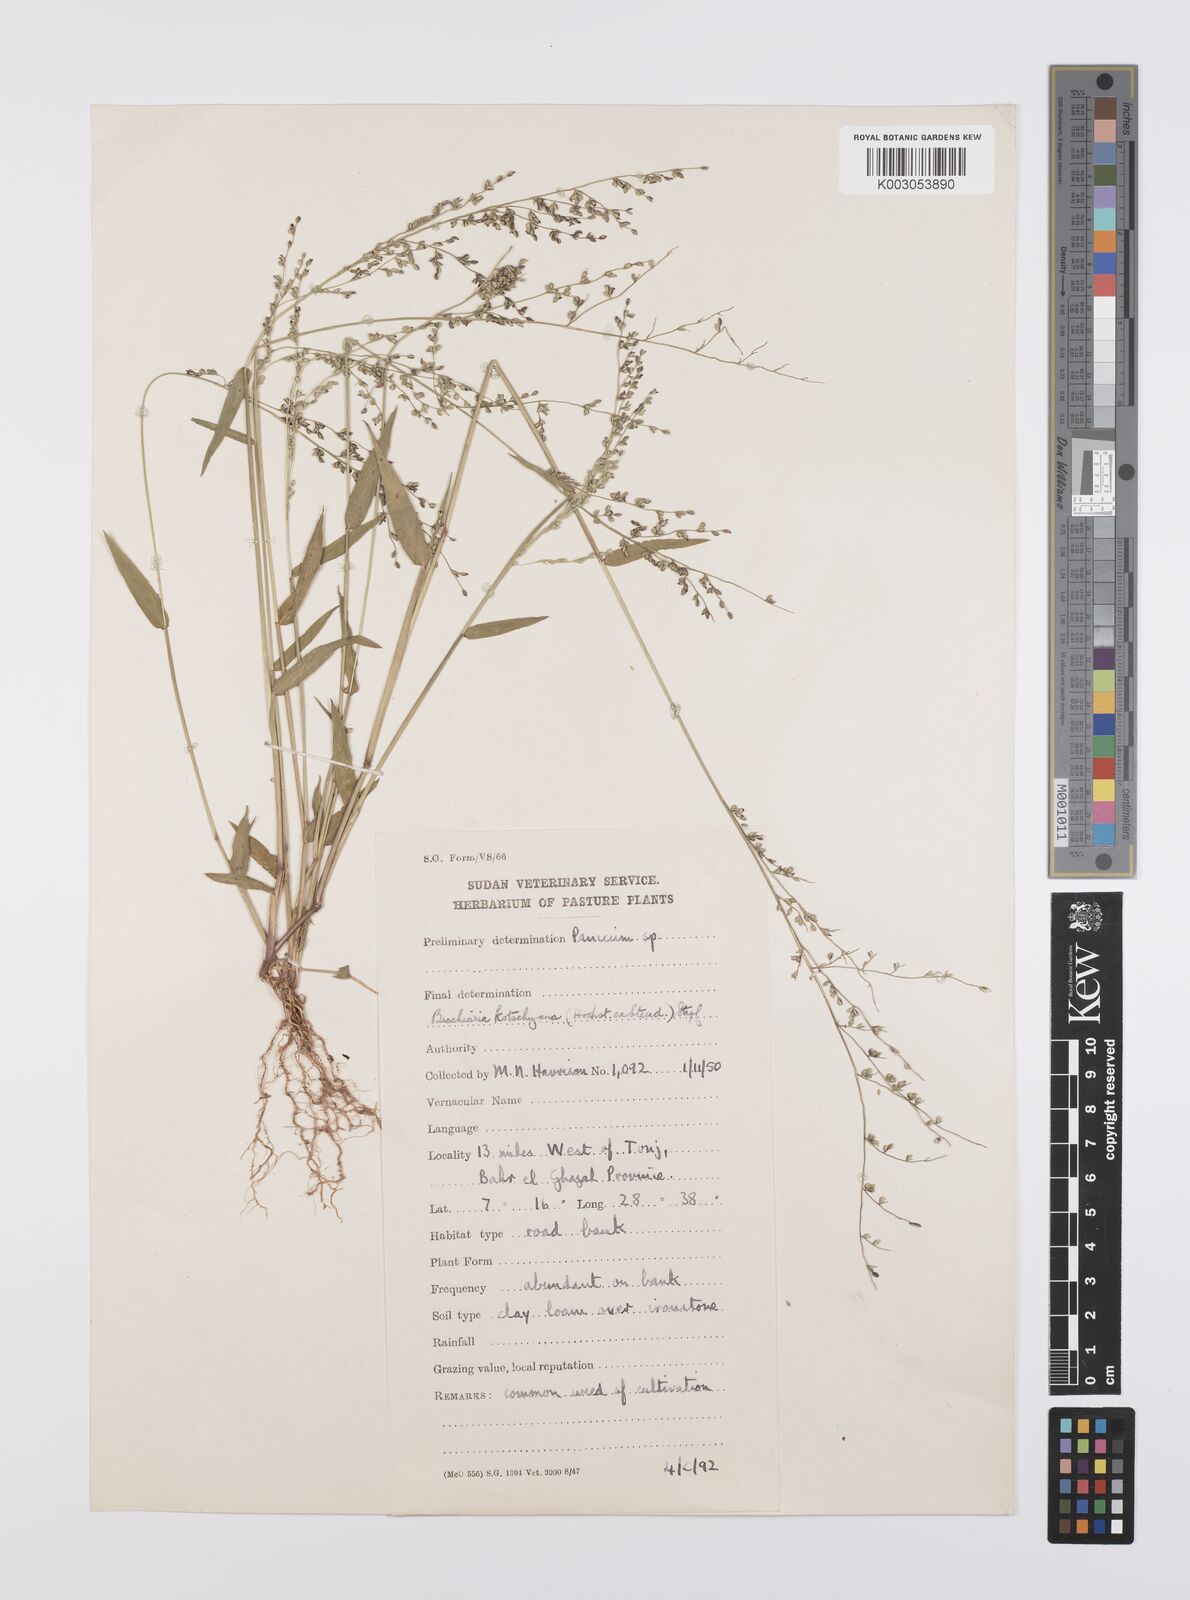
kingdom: Plantae
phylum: Tracheophyta
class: Liliopsida
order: Poales
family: Poaceae
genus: Urochloa
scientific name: Urochloa comata
